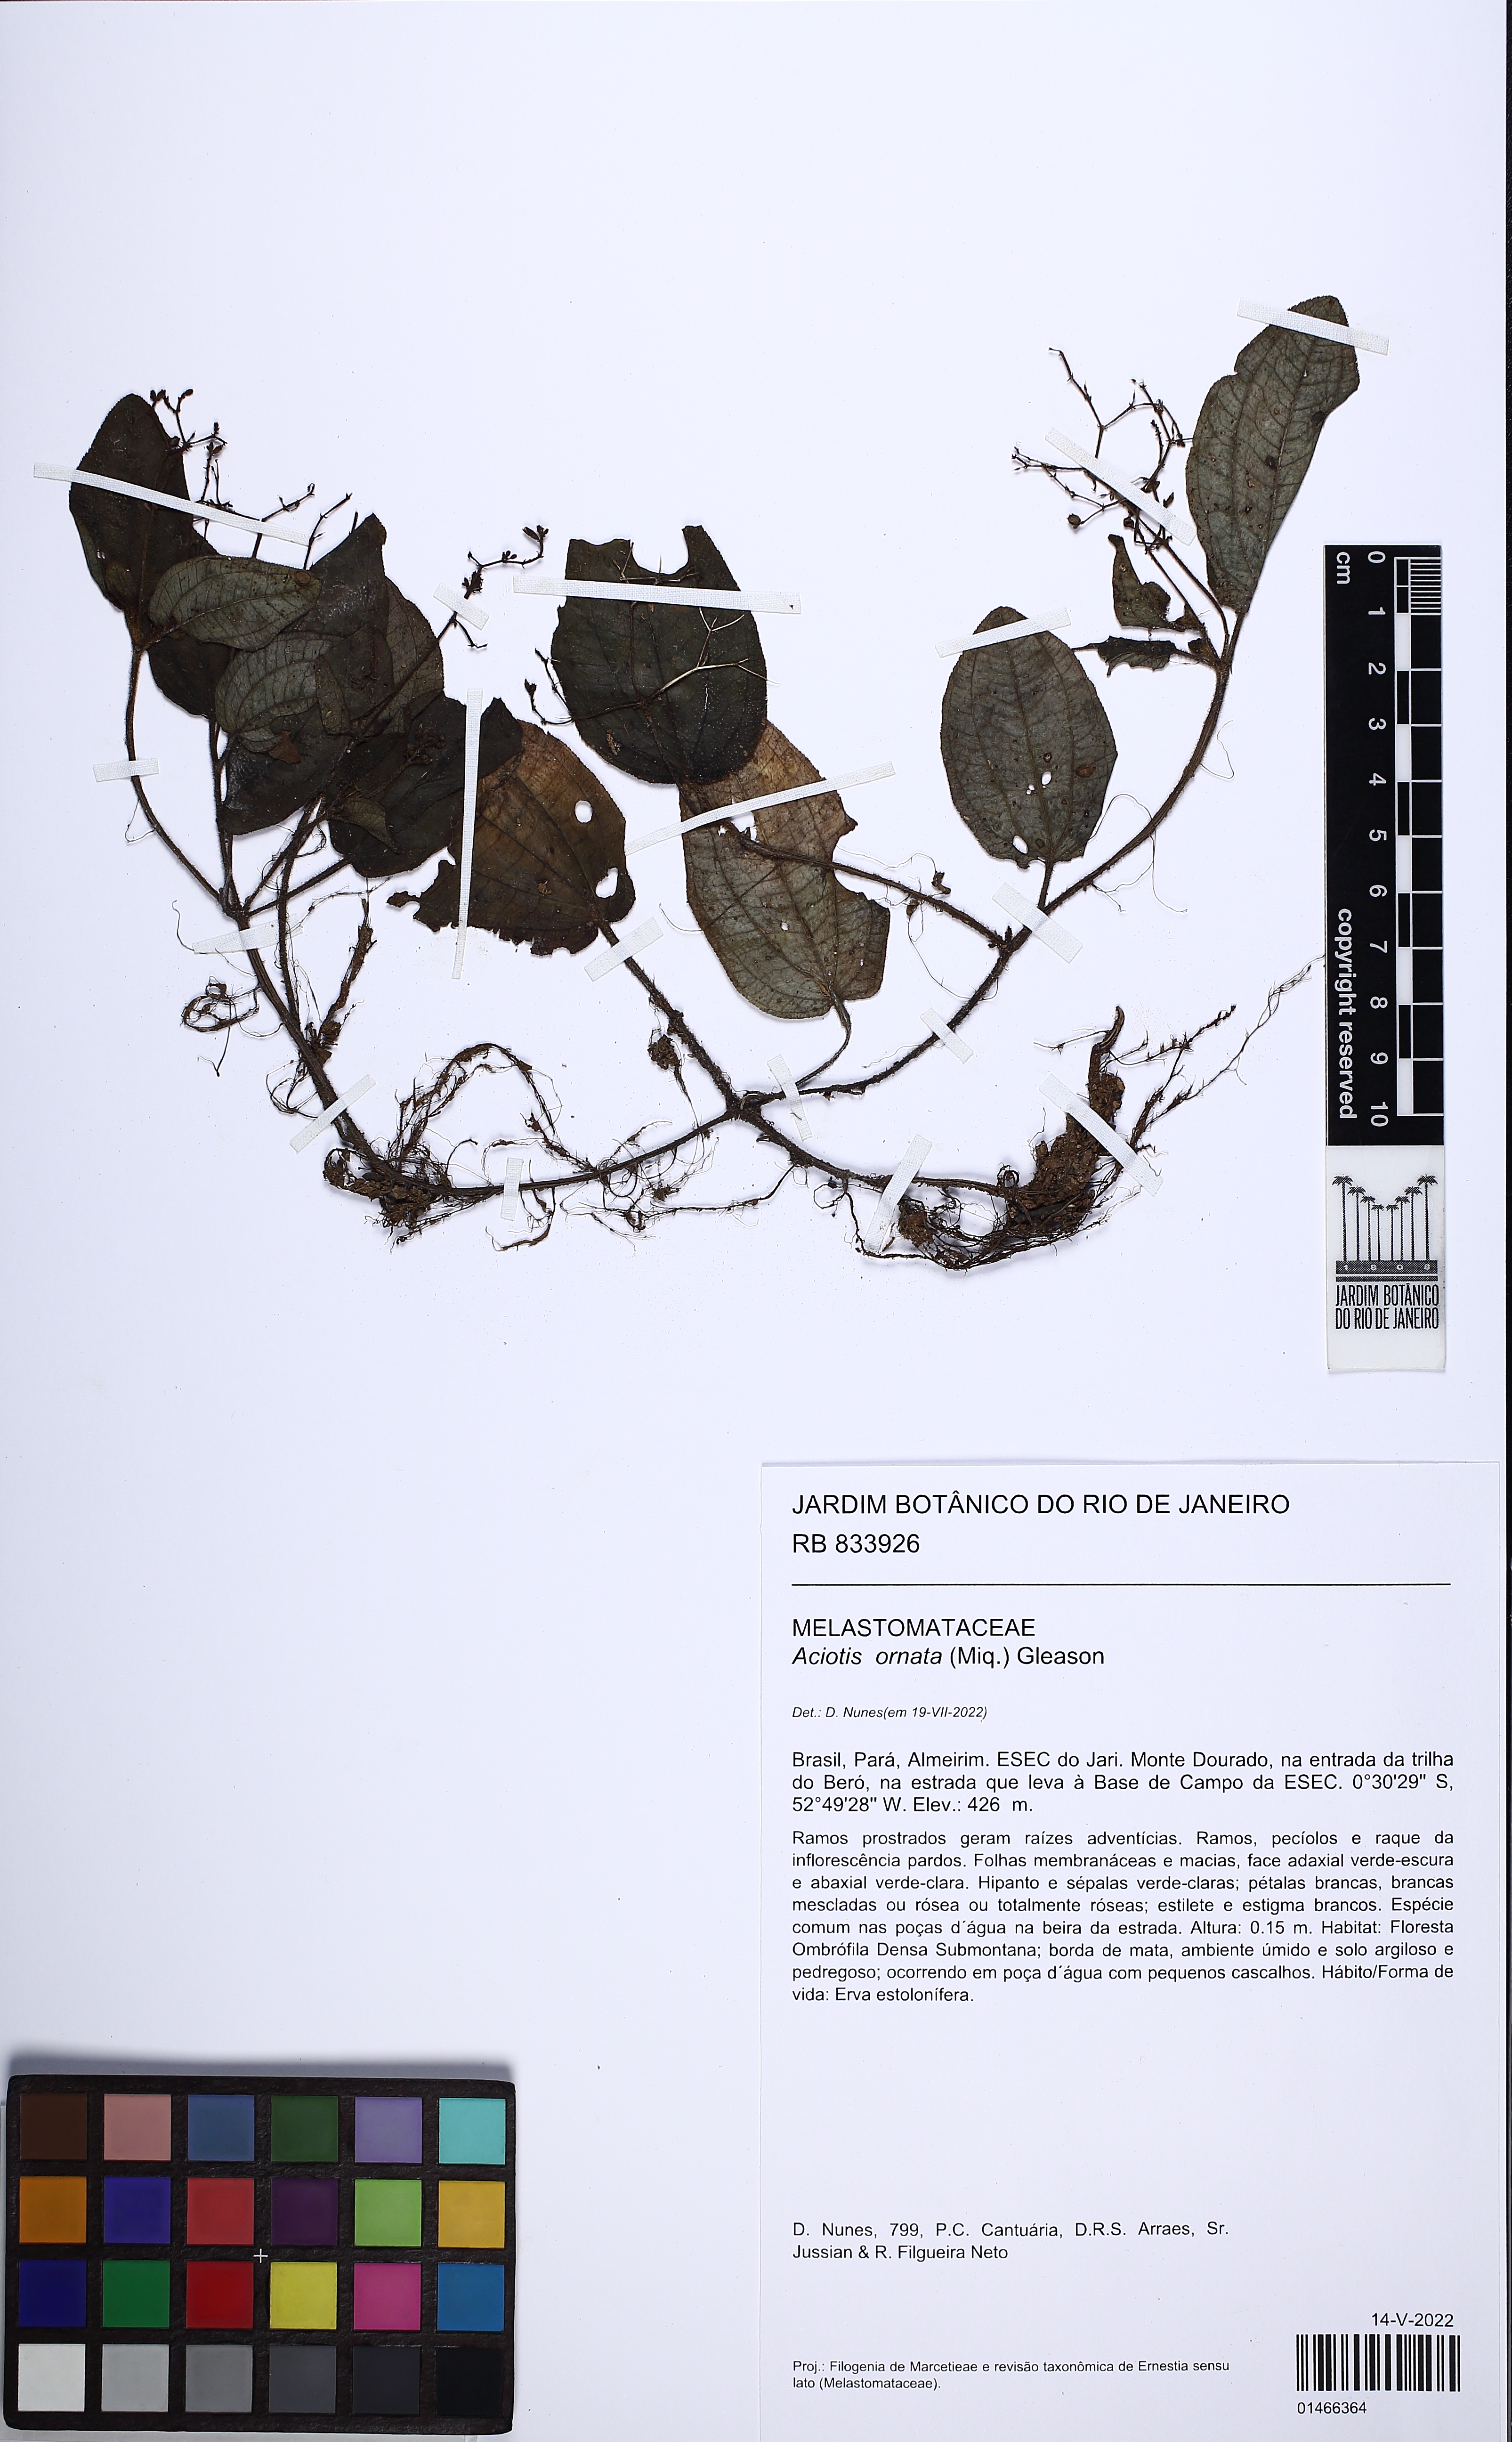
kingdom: Plantae
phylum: Tracheophyta
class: Magnoliopsida
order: Myrtales
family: Melastomataceae
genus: Aciotis
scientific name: Aciotis ornata
